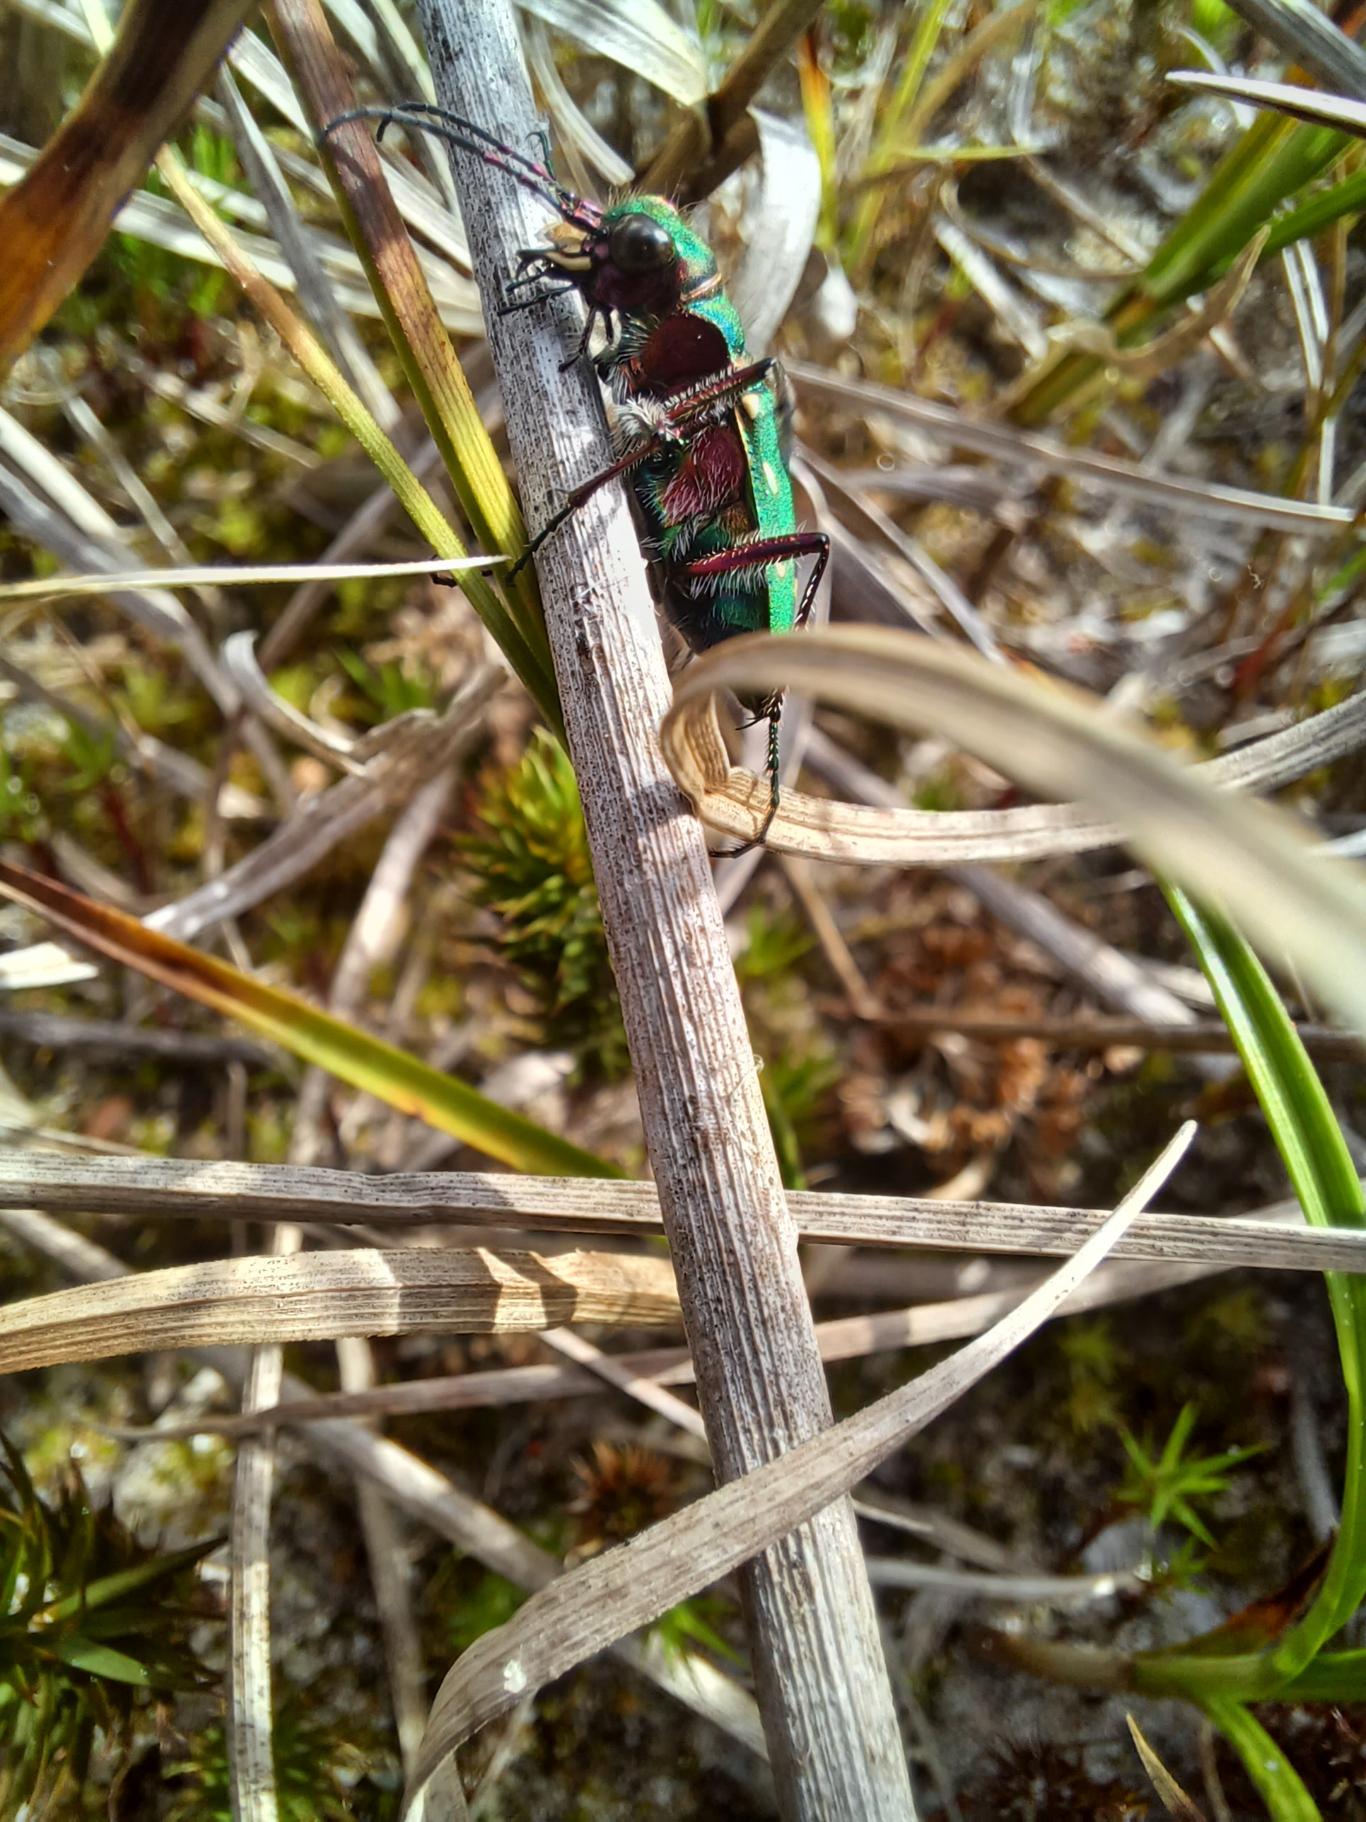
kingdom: Animalia
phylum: Arthropoda
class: Insecta
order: Coleoptera
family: Carabidae
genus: Cicindela
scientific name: Cicindela campestris
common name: Grøn sandspringer
